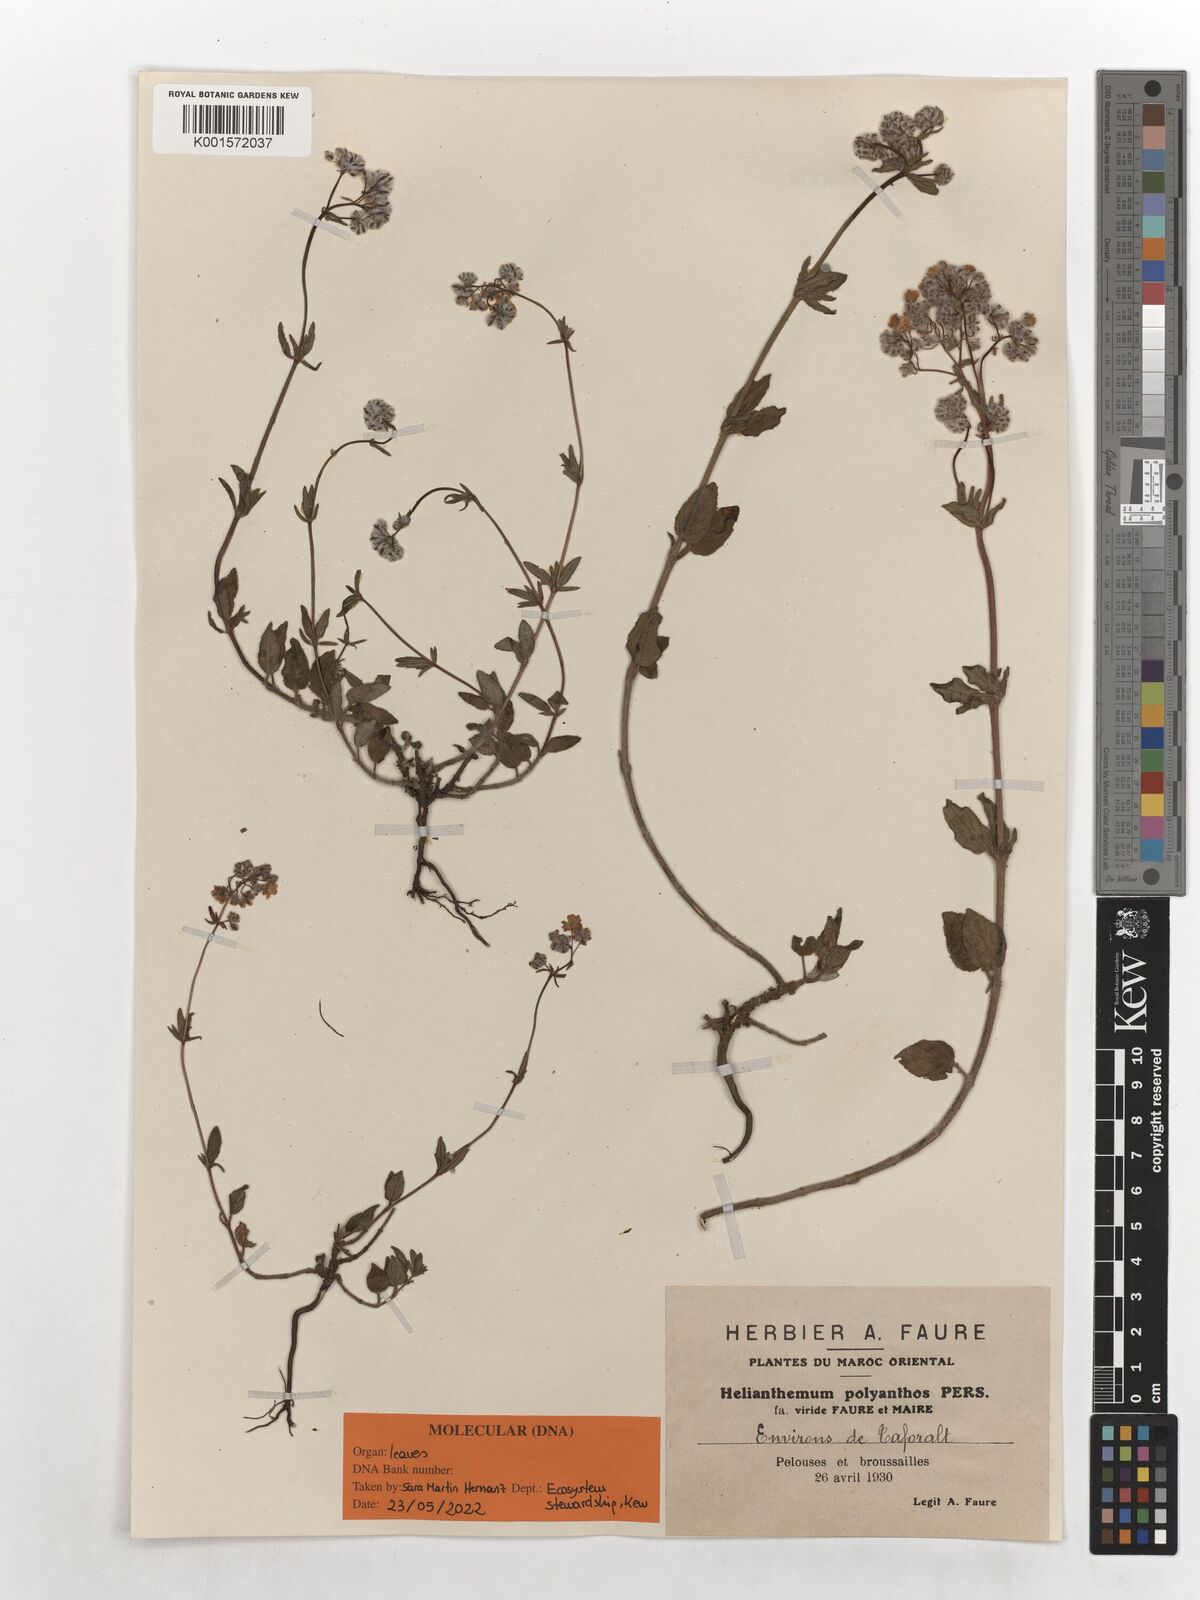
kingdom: Plantae
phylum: Tracheophyta
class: Magnoliopsida
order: Malvales
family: Cistaceae
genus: Helianthemum
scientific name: Helianthemum polyanthum
